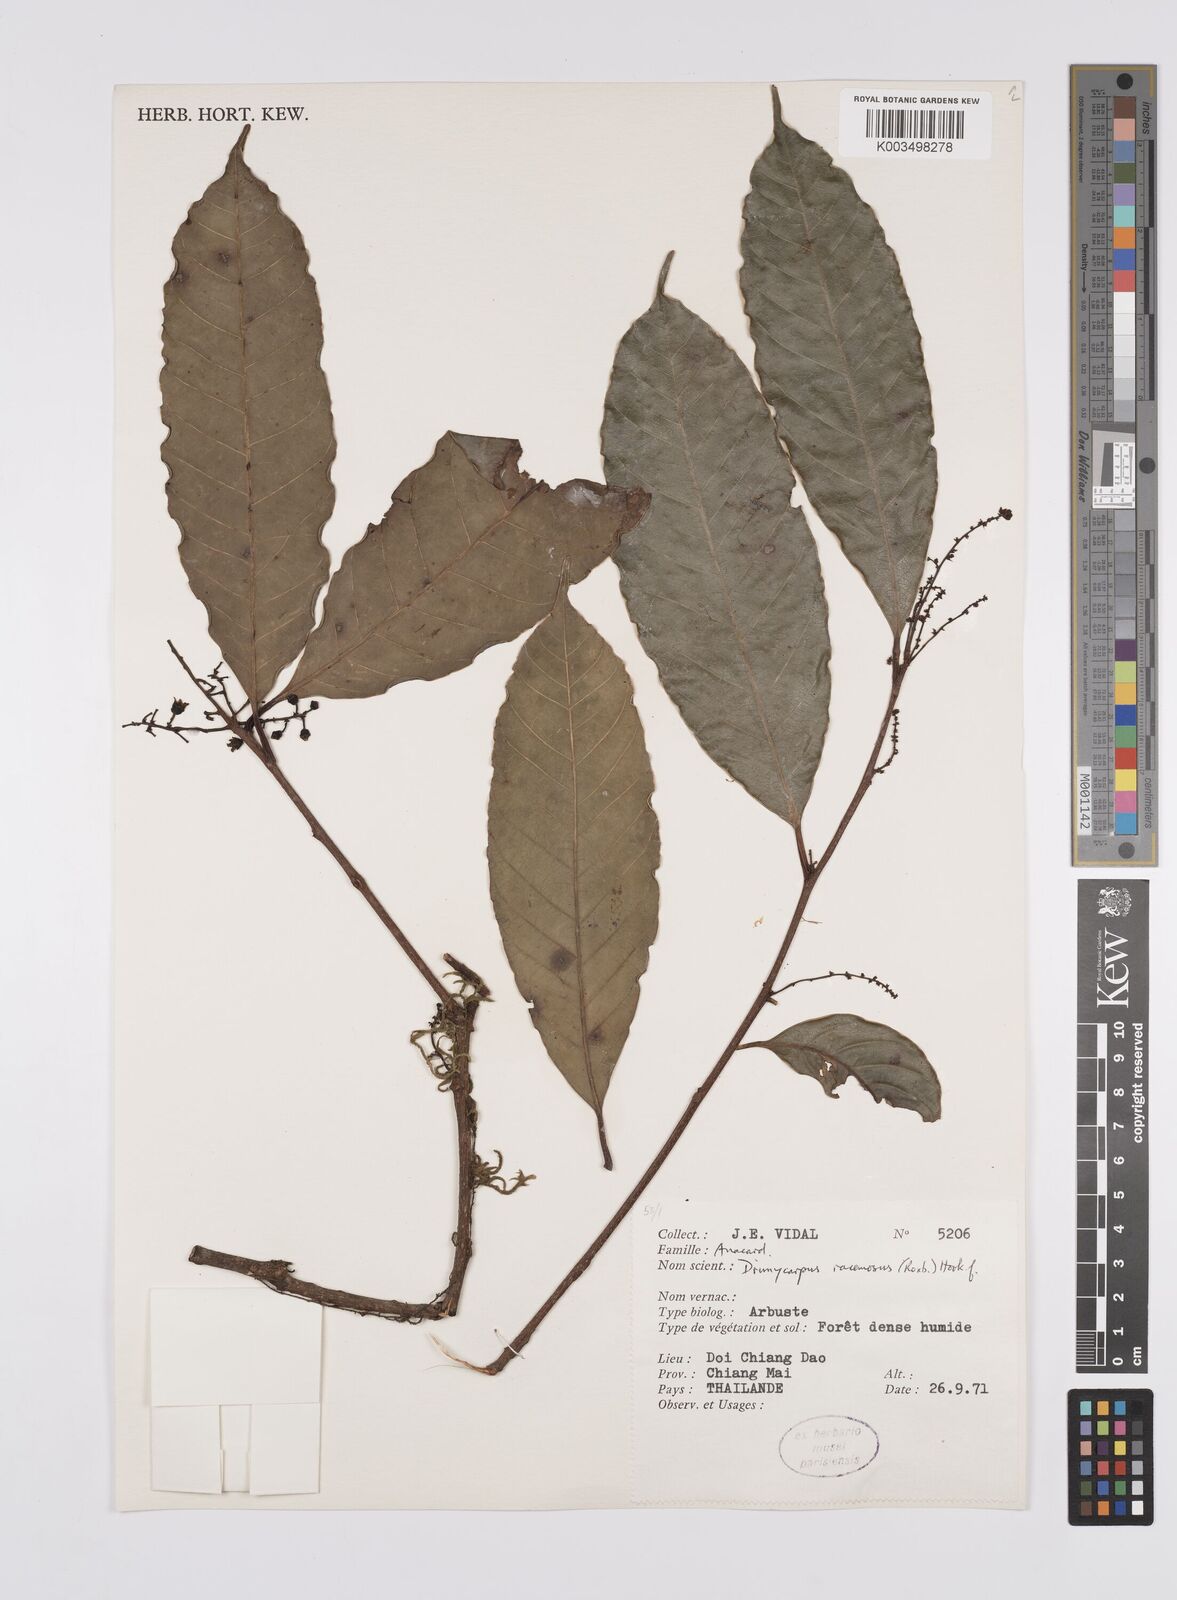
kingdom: Plantae
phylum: Tracheophyta
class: Magnoliopsida
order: Sapindales
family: Anacardiaceae
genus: Drimycarpus
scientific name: Drimycarpus racemosus
